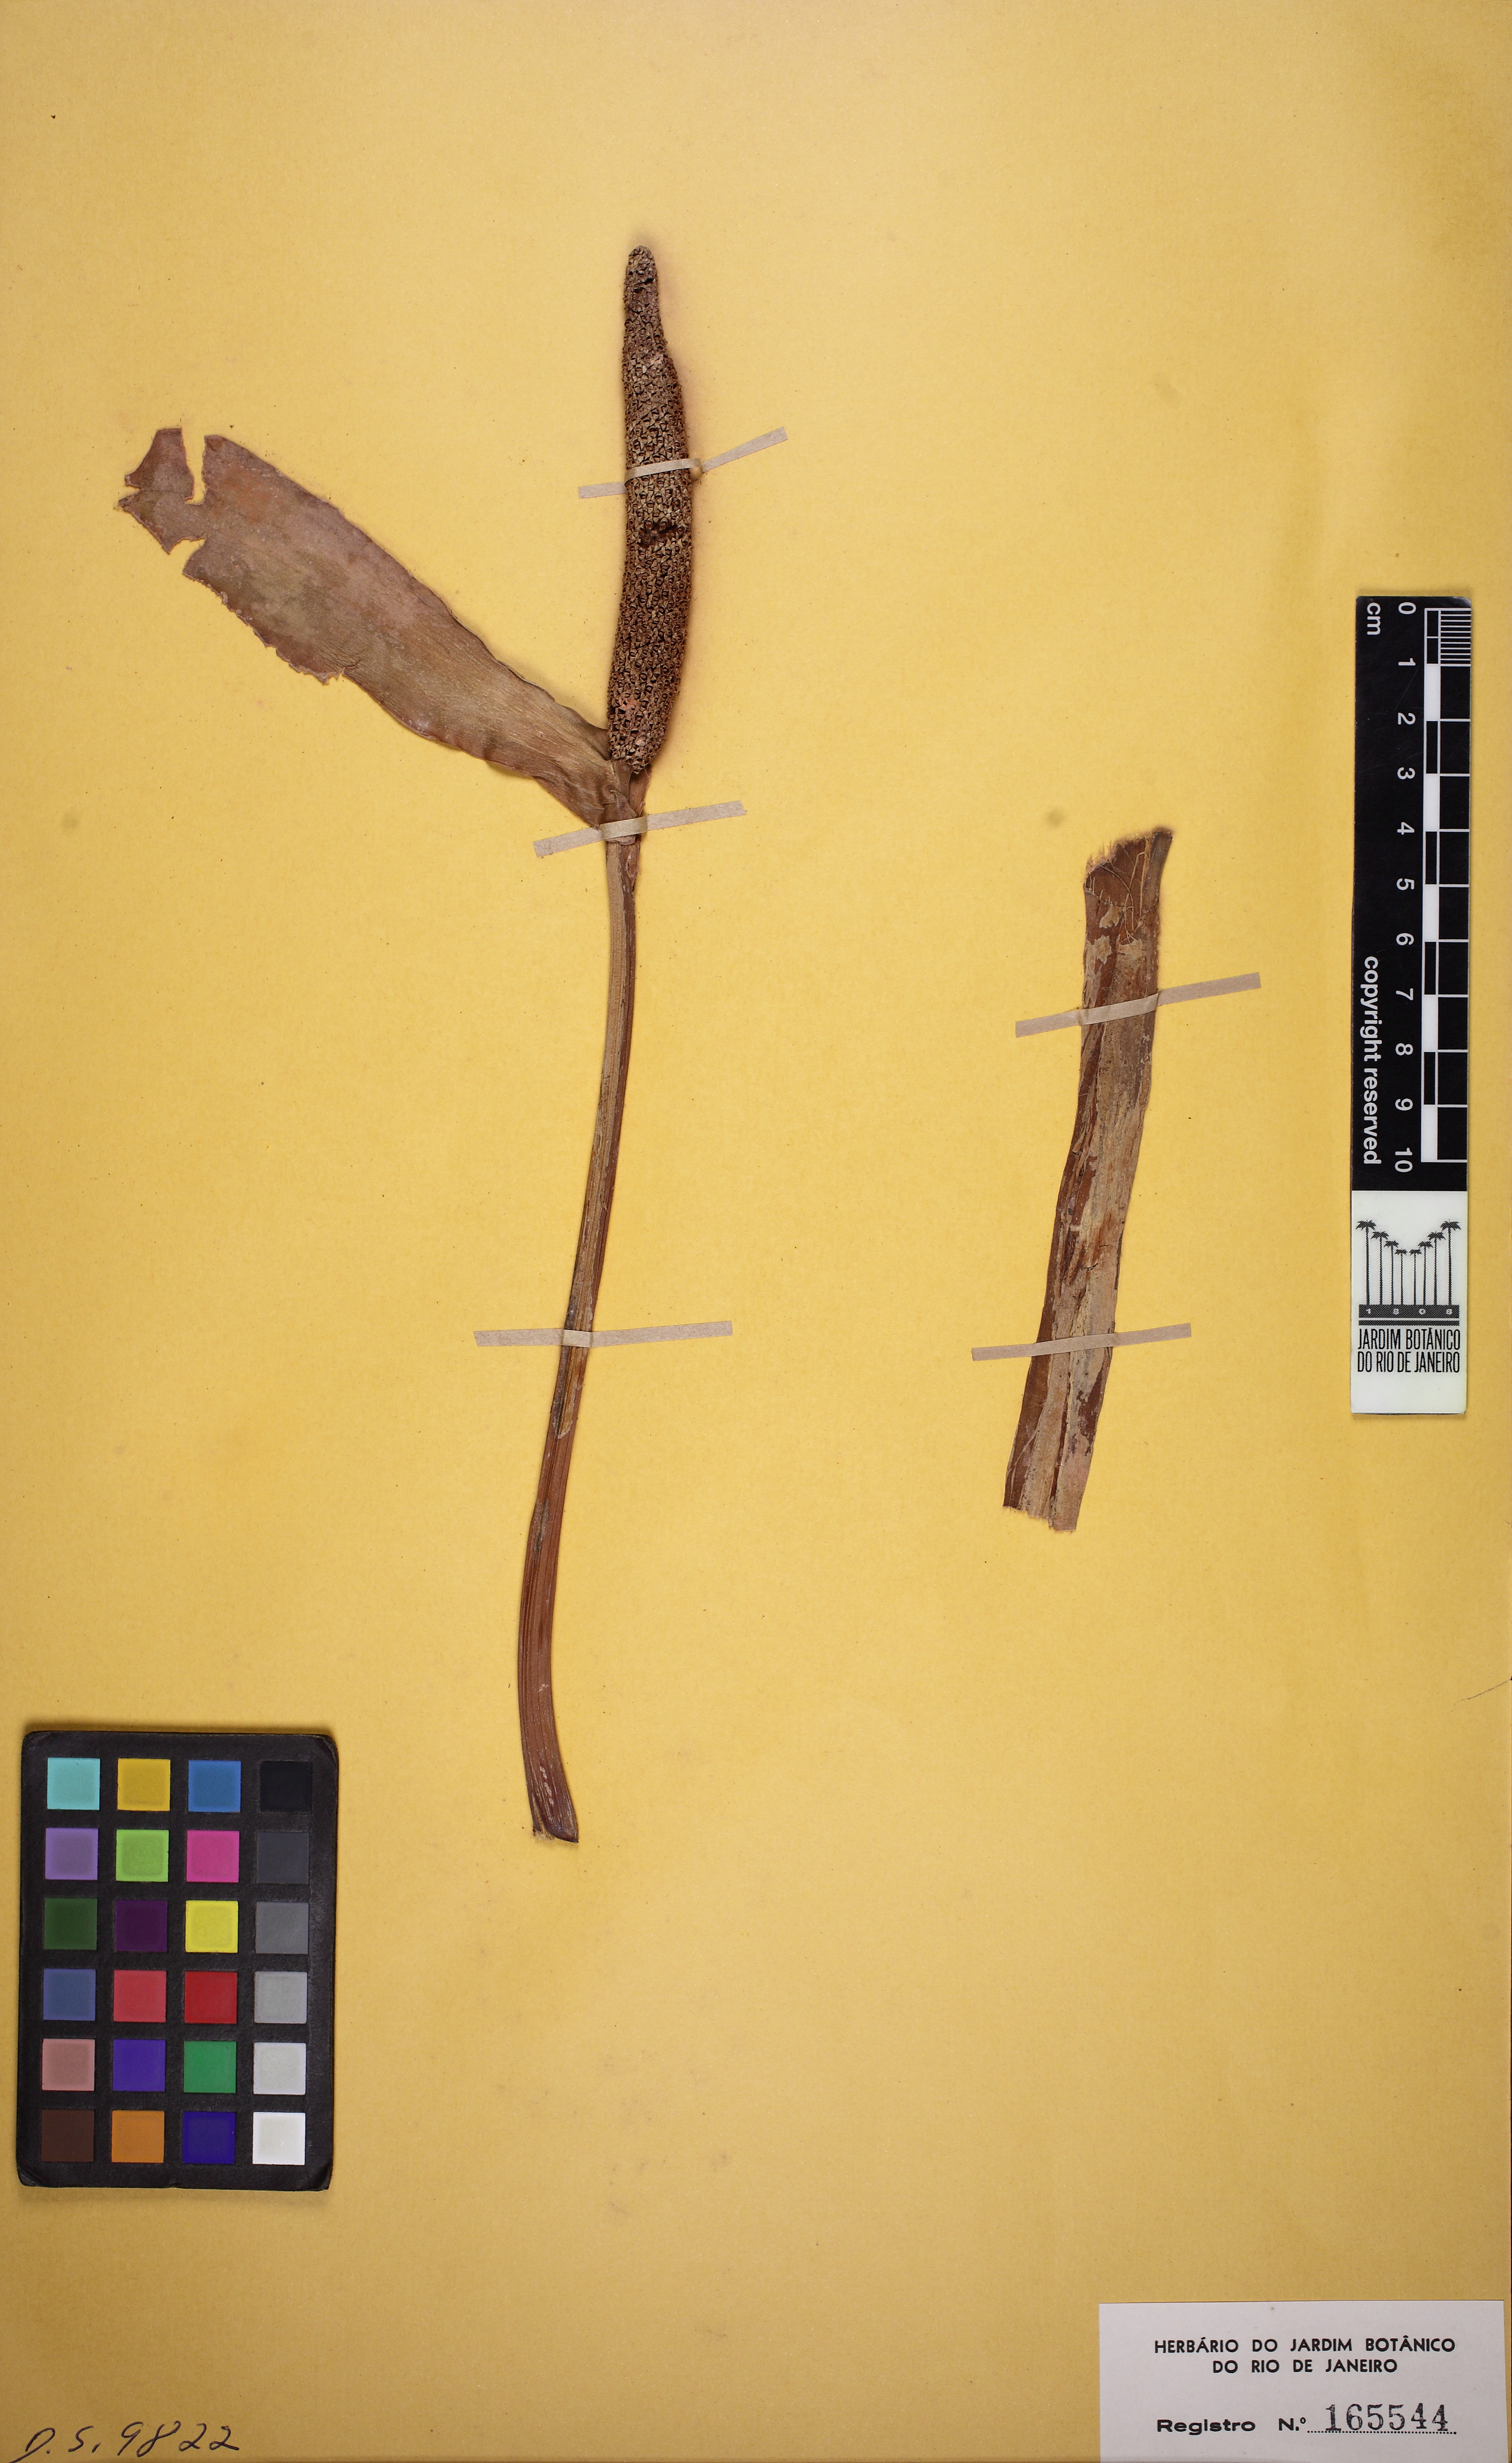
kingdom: Plantae
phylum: Tracheophyta
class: Liliopsida
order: Alismatales
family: Araceae
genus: Anthurium
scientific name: Anthurium formosum
